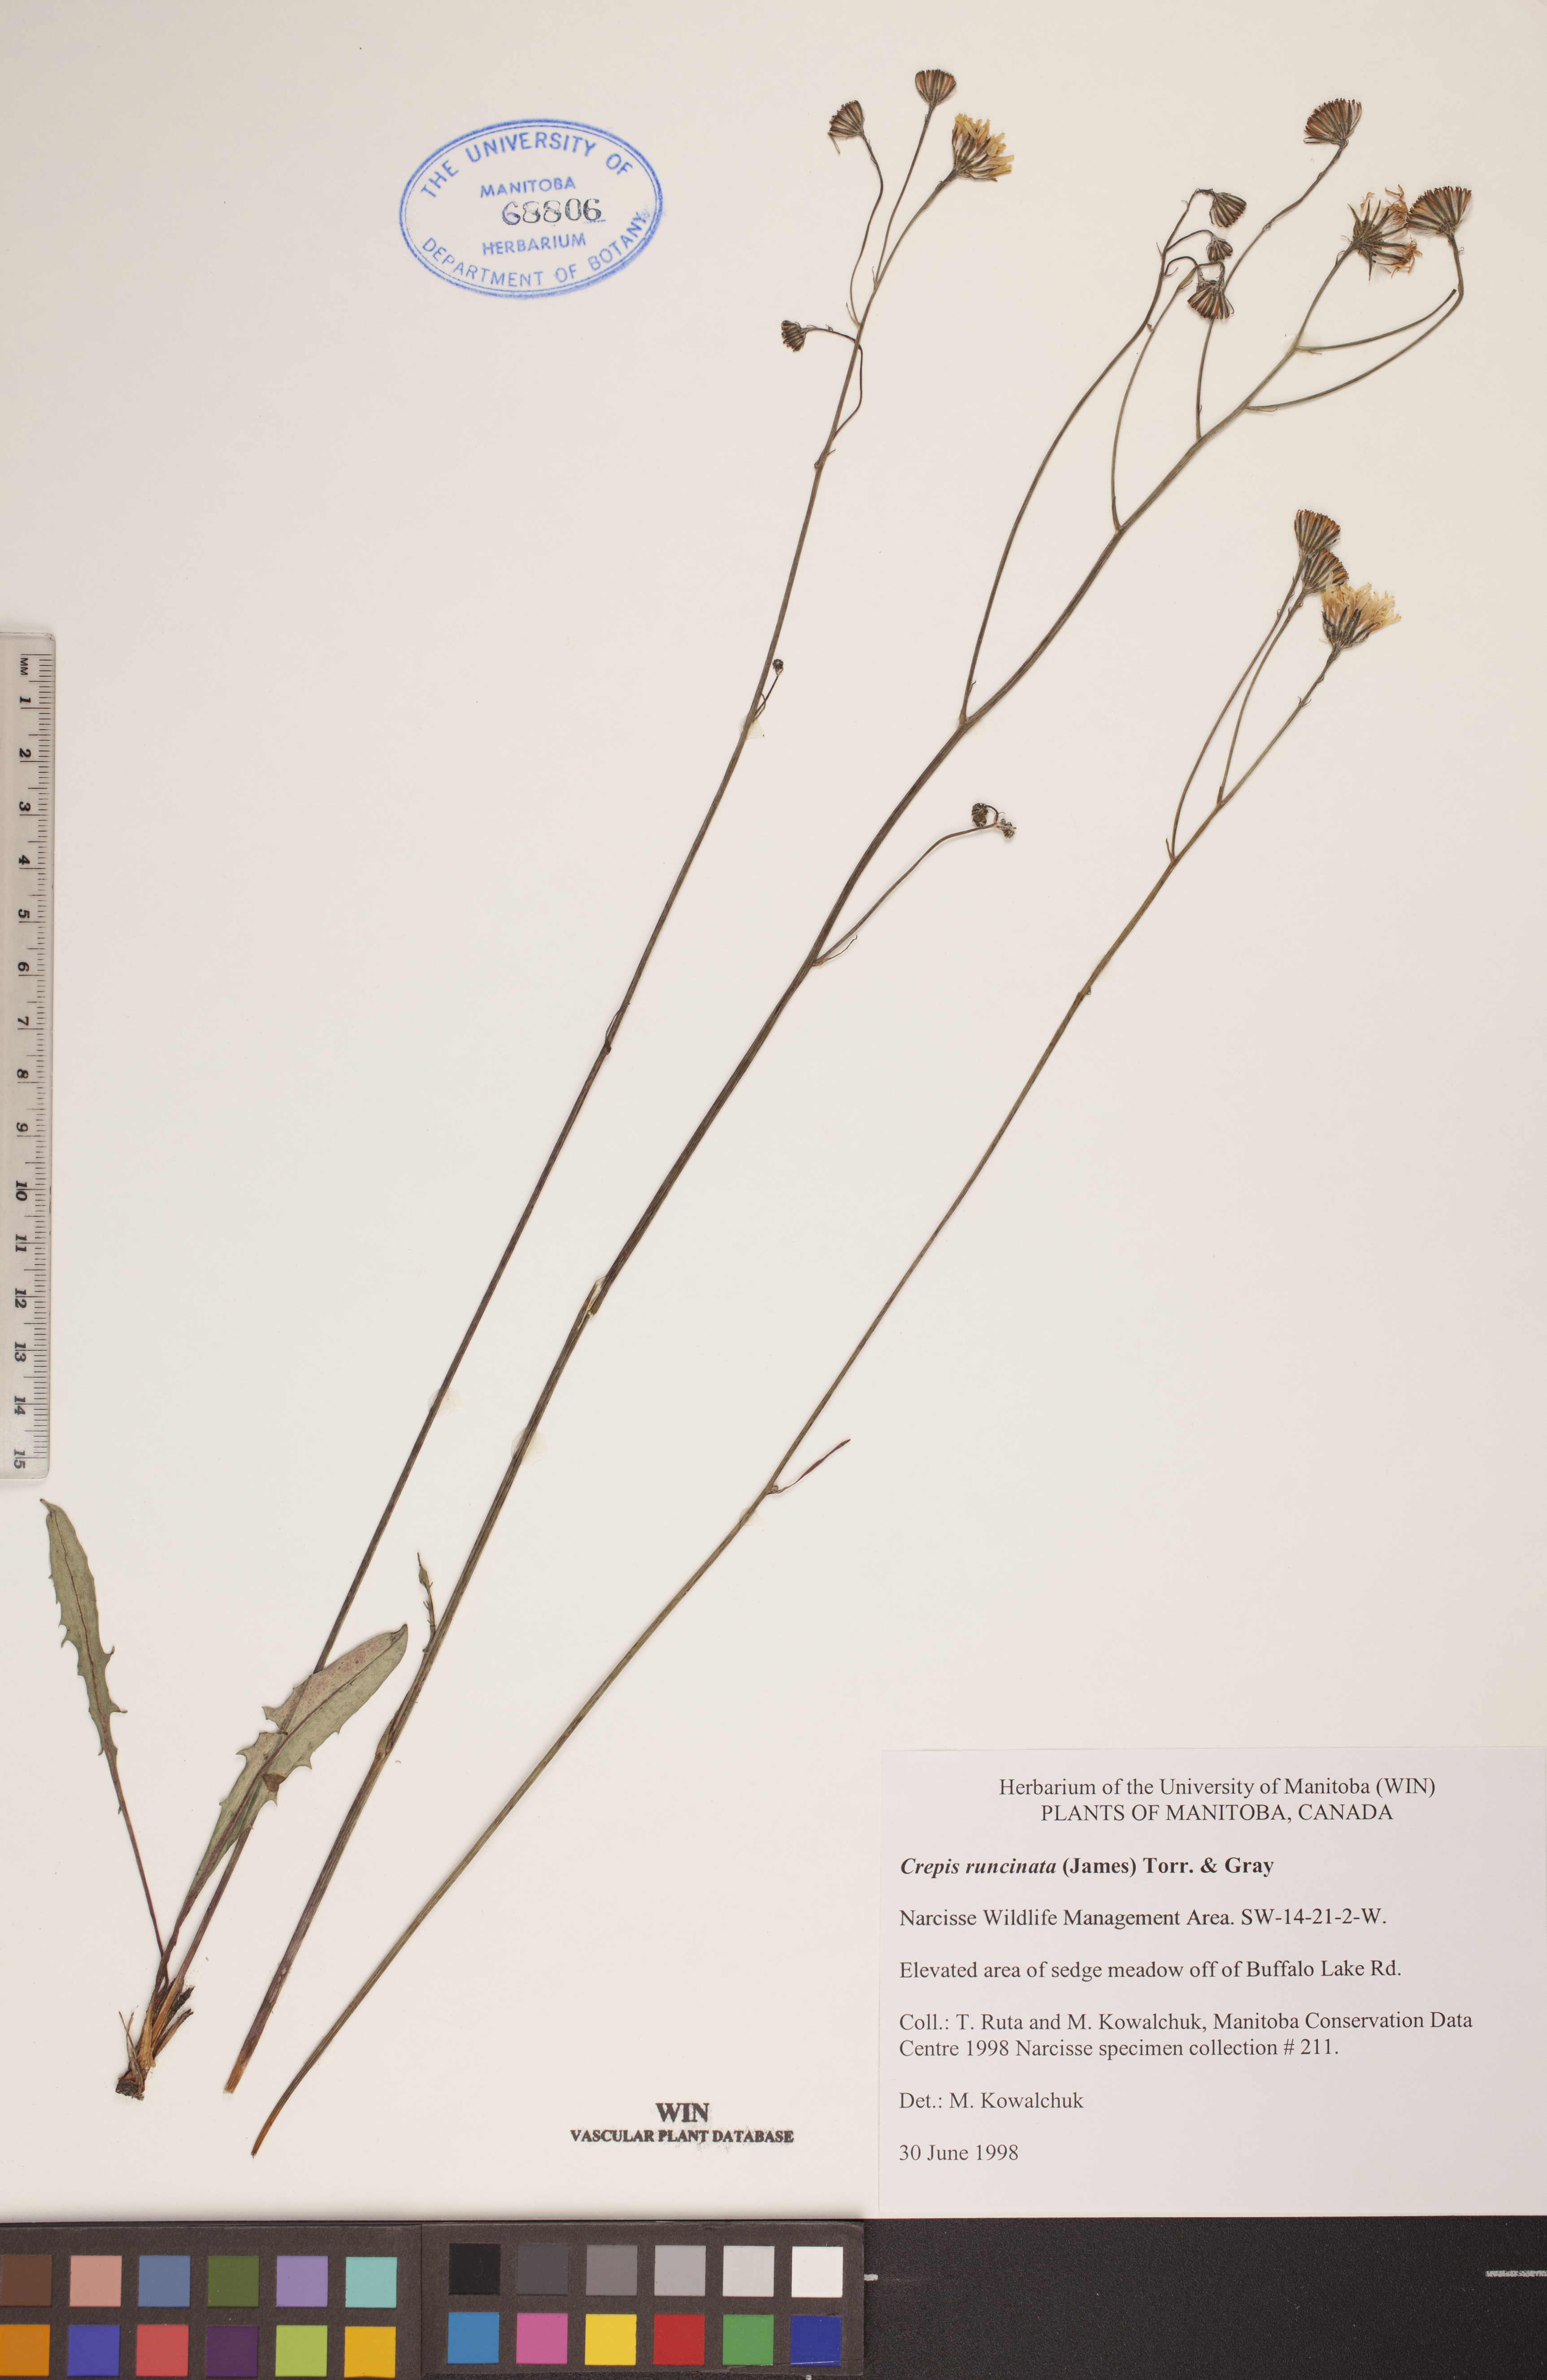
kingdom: Plantae
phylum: Tracheophyta
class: Magnoliopsida
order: Asterales
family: Asteraceae
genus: Crepis
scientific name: Crepis runcinata
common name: Dandelion hawksbeard
